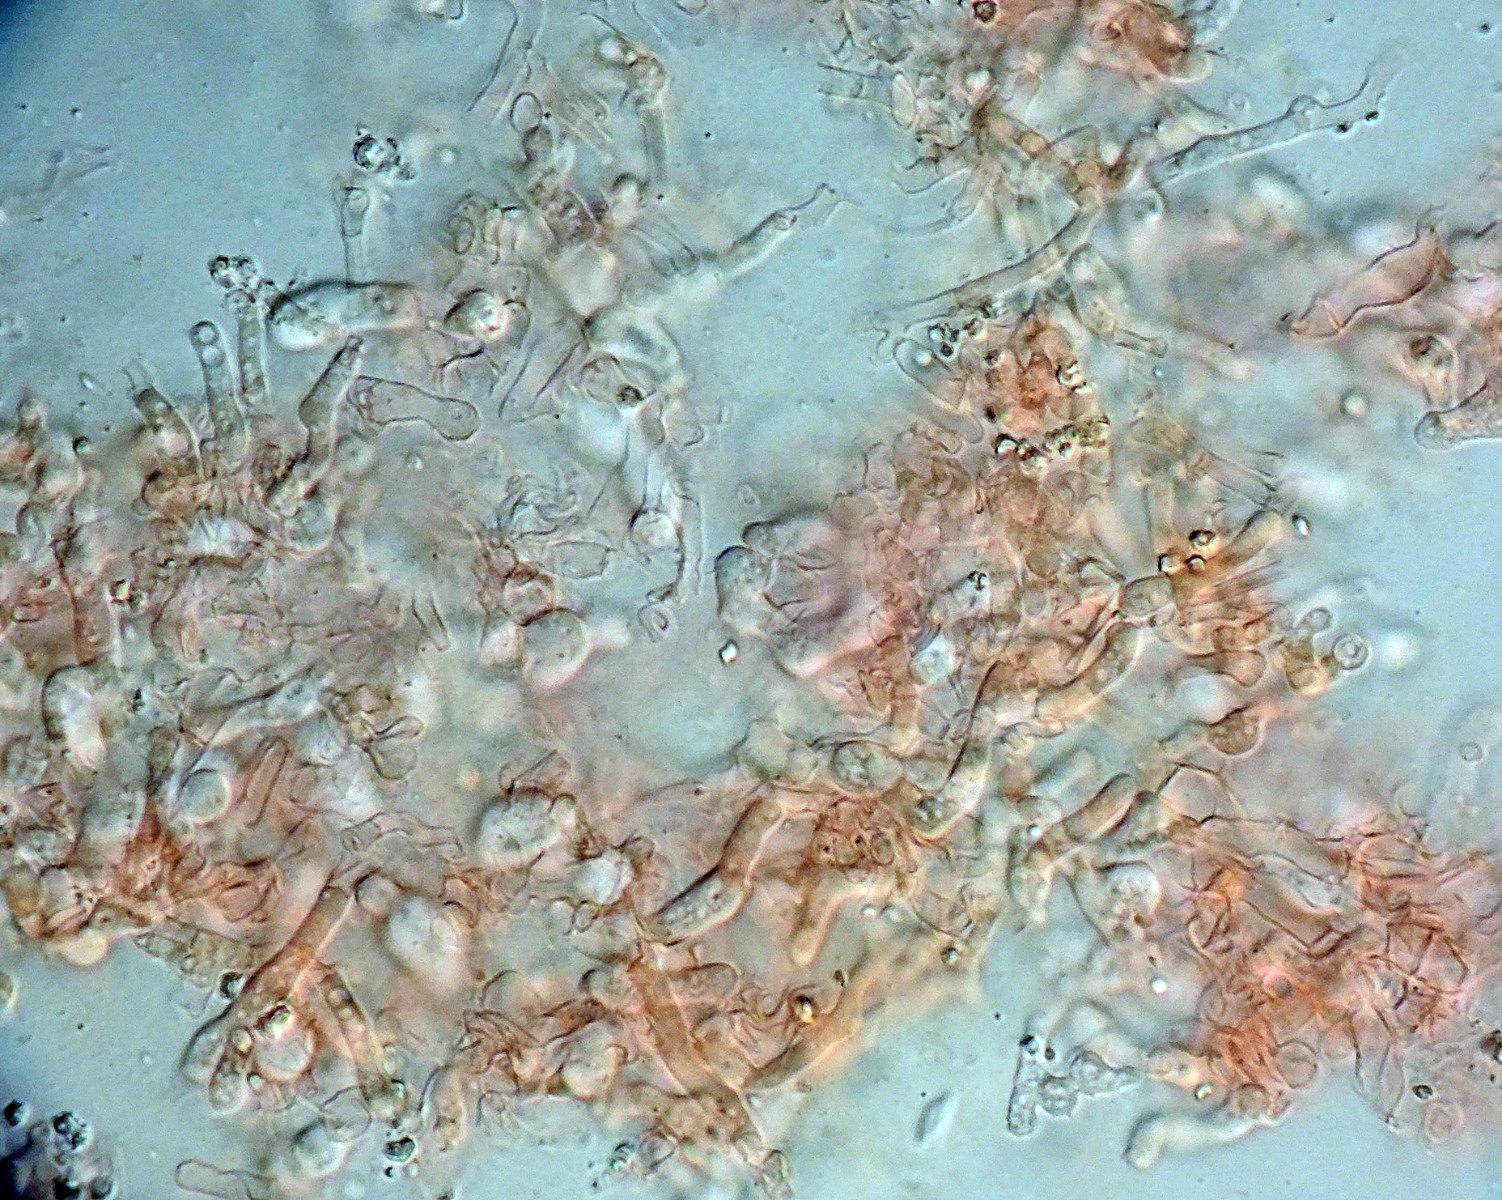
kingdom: Fungi
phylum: Basidiomycota
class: Agaricomycetes
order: Trechisporales
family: Sistotremataceae
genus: Trechispora
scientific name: Trechispora
